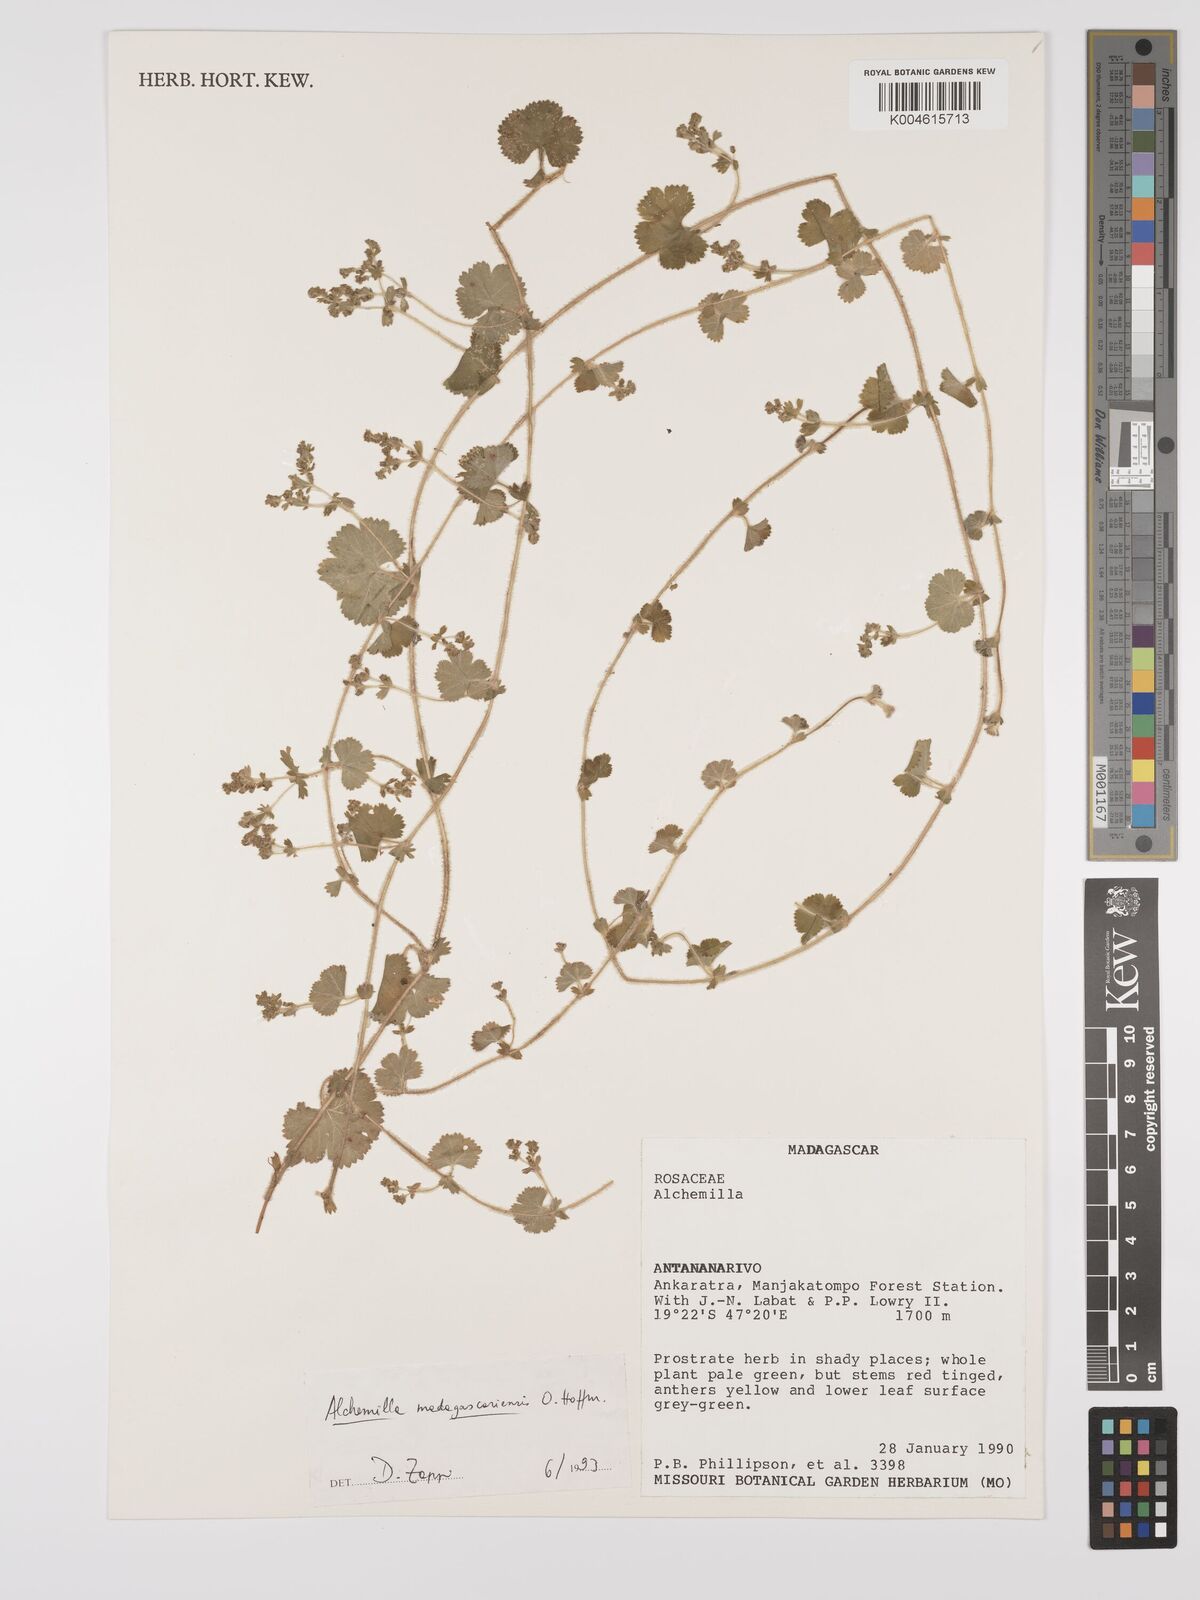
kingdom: Plantae
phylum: Tracheophyta
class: Magnoliopsida
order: Rosales
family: Rosaceae
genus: Alchemilla
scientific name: Alchemilla cryptantha
